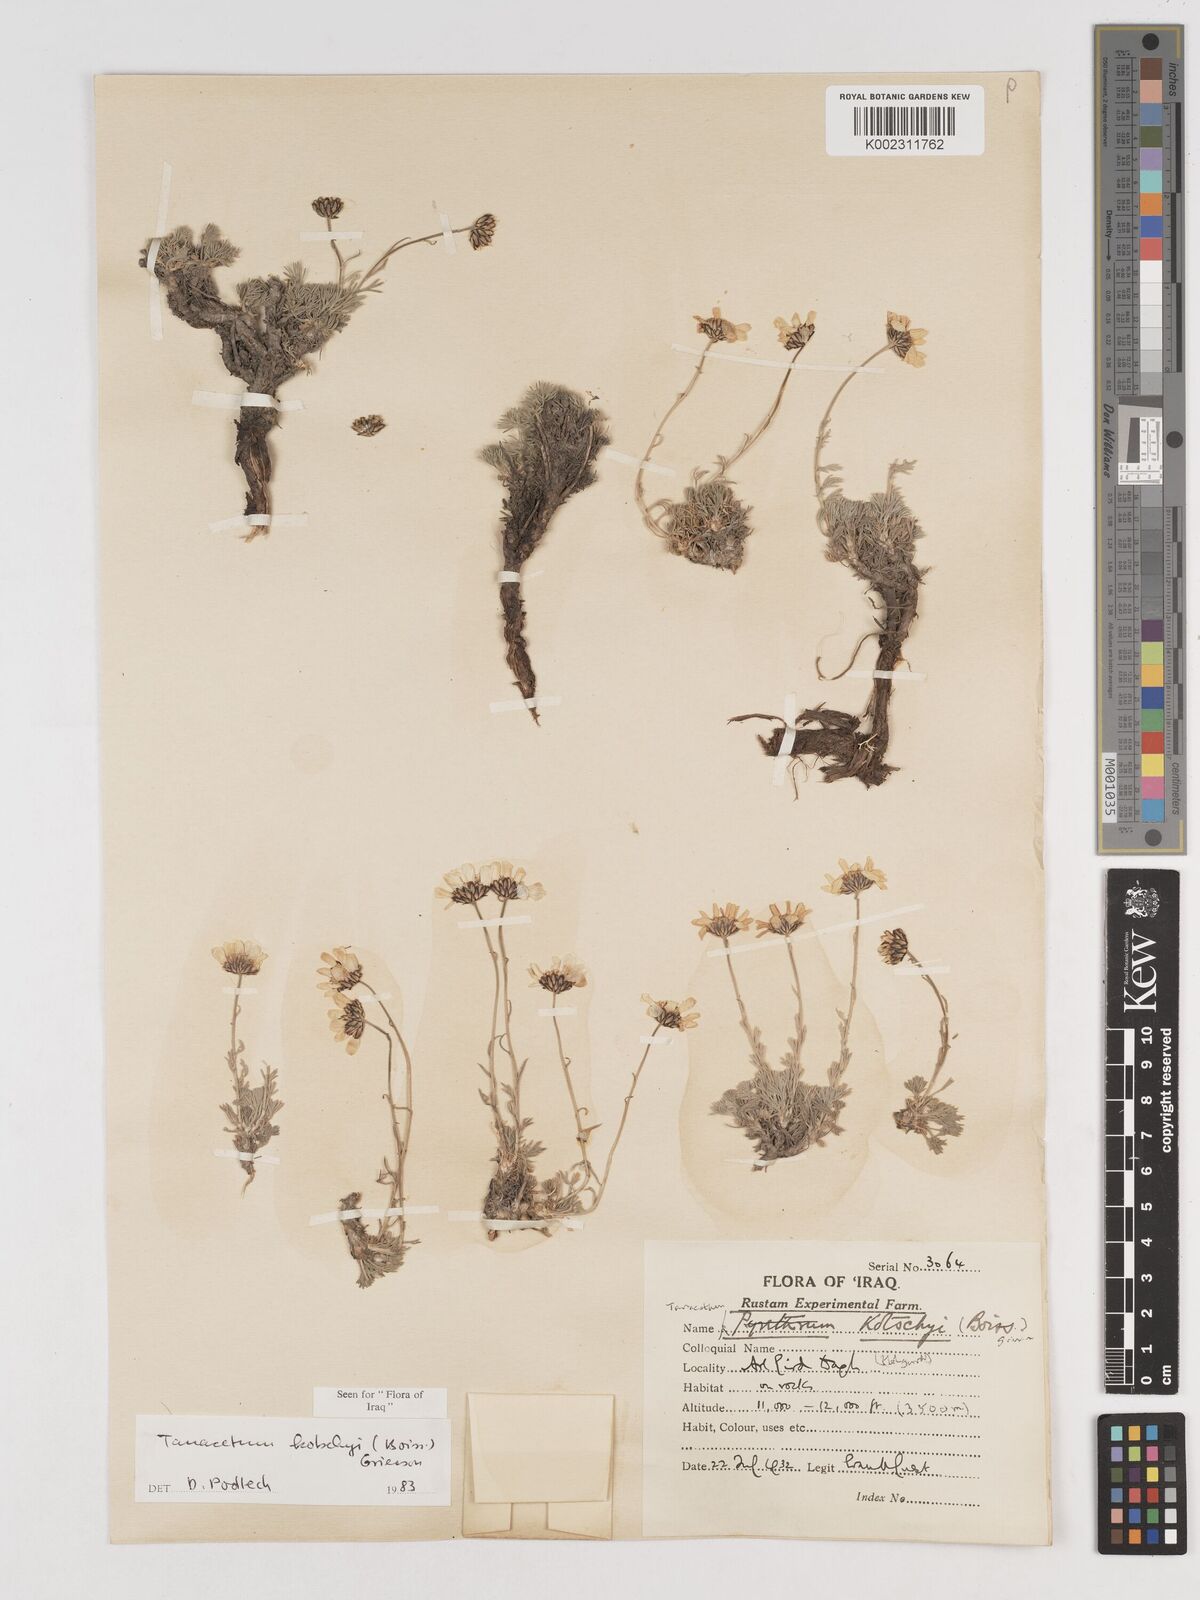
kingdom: Plantae
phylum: Tracheophyta
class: Magnoliopsida
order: Asterales
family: Asteraceae
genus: Tanacetum
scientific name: Tanacetum polycephalum
